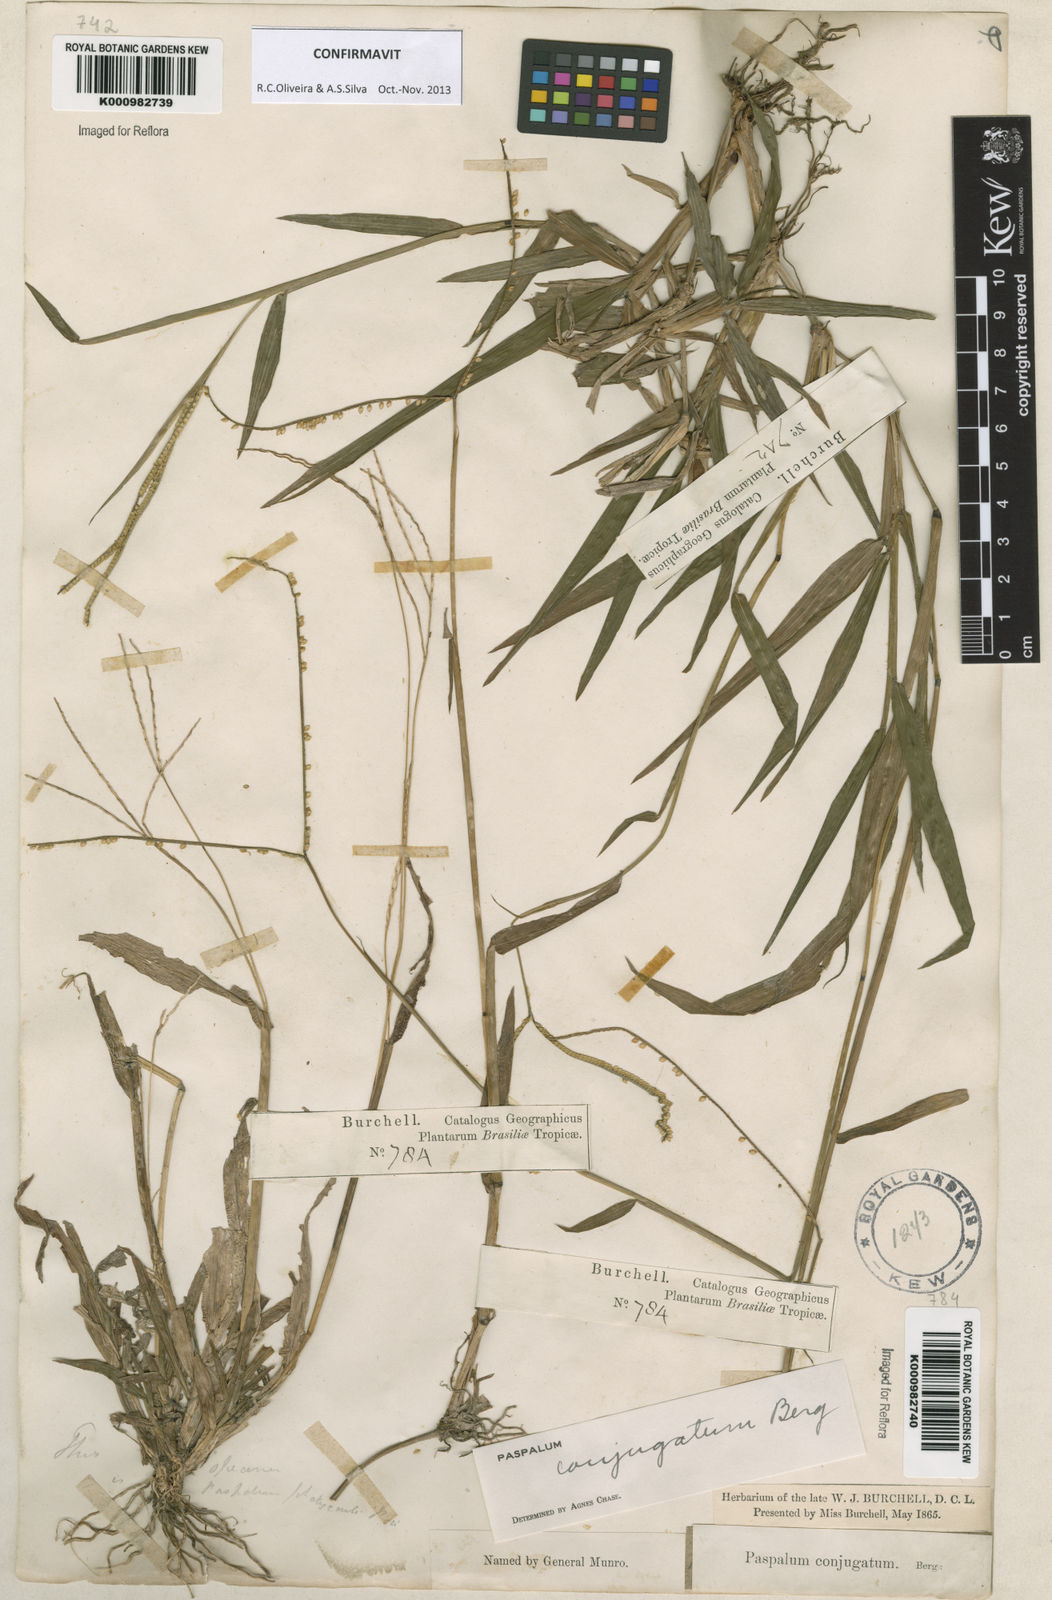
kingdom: Plantae
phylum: Tracheophyta
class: Liliopsida
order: Poales
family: Poaceae
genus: Paspalum
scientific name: Paspalum conjugatum
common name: Hilograss
